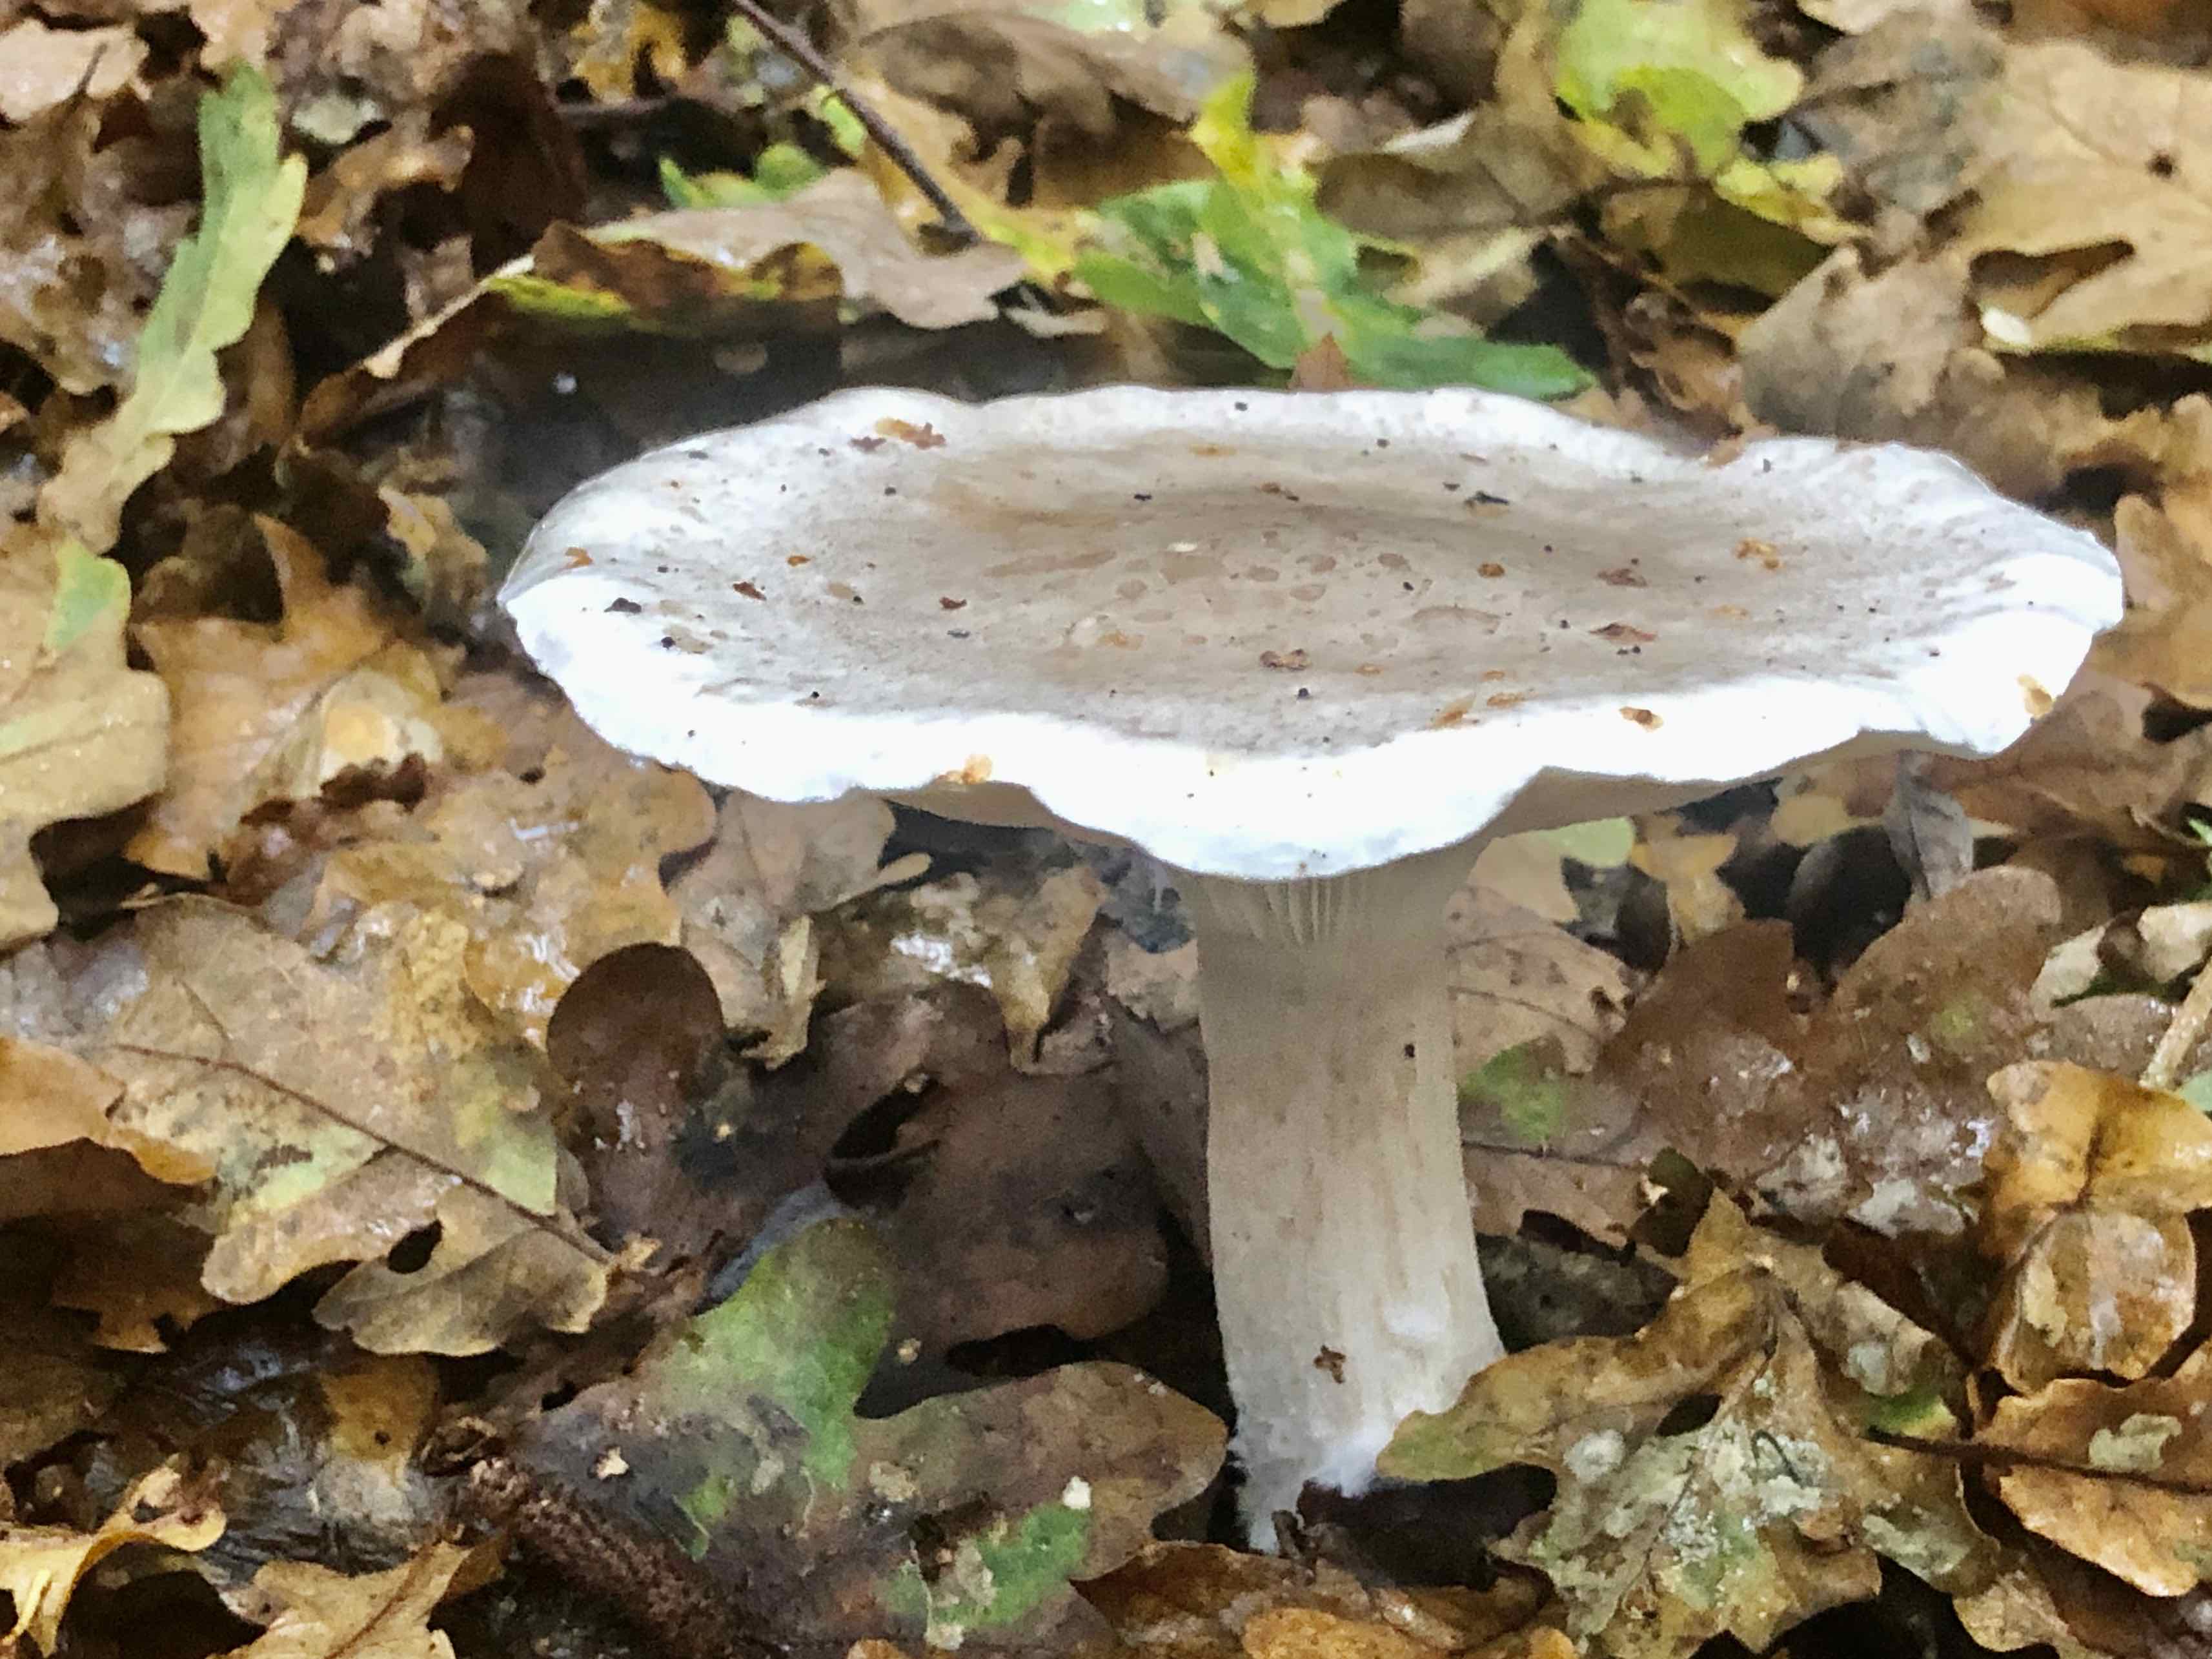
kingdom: Fungi
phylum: Basidiomycota
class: Agaricomycetes
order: Agaricales
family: Tricholomataceae
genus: Clitocybe
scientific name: Clitocybe nebularis
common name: tåge-tragthat
